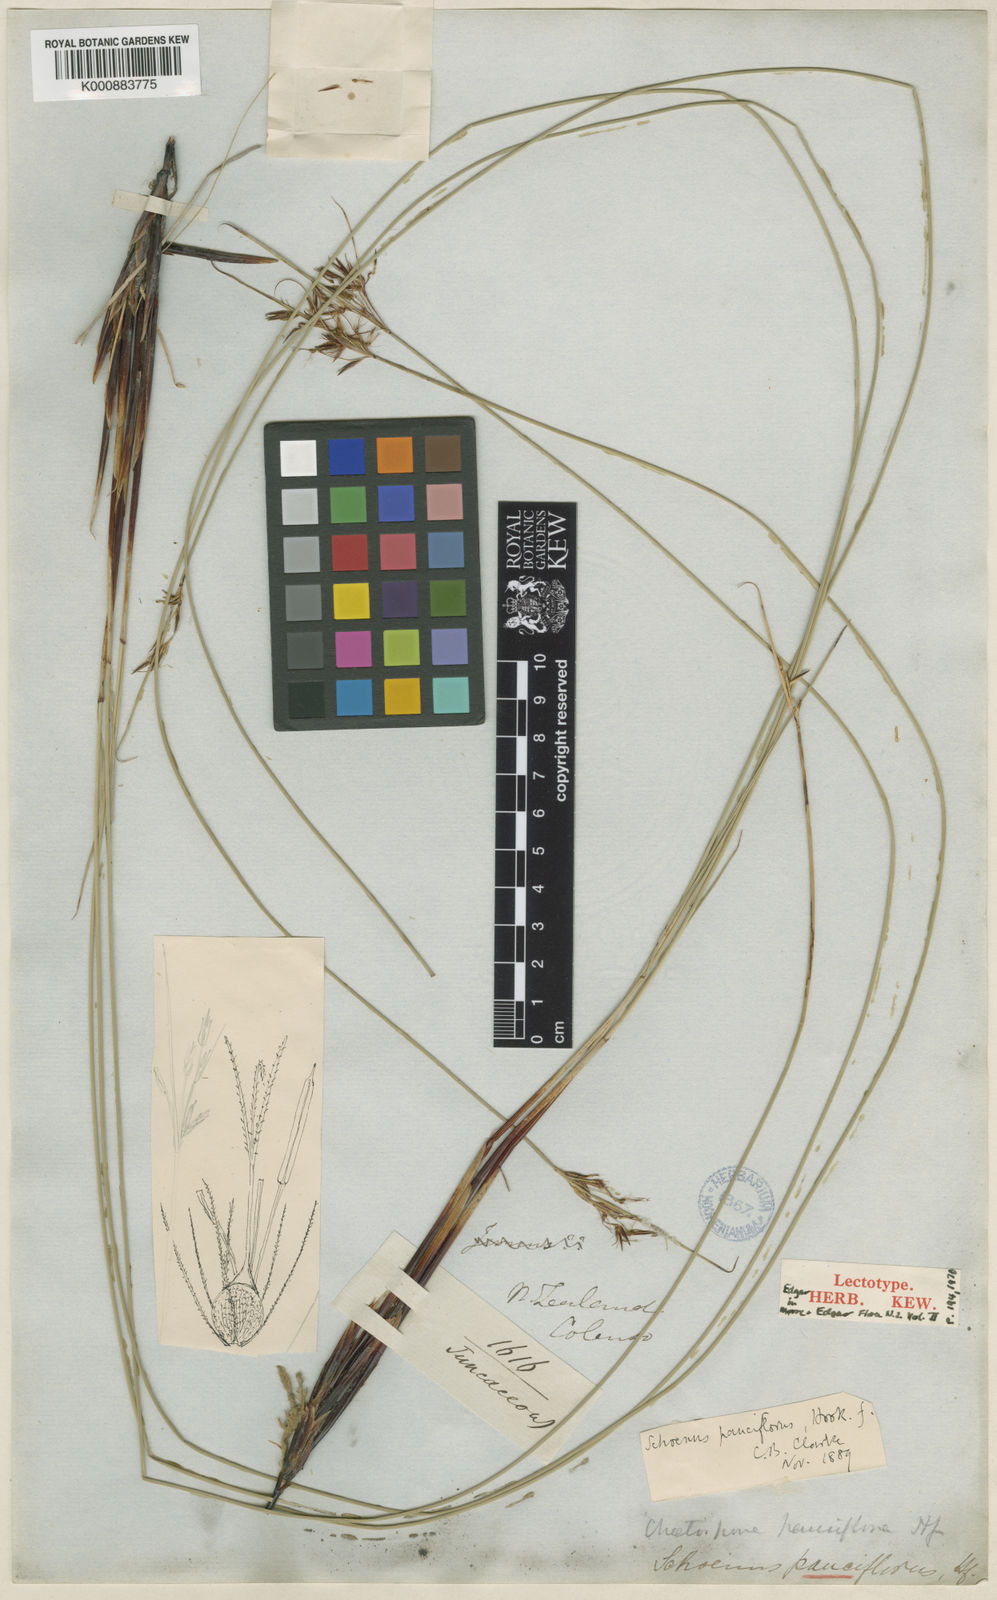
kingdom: Plantae
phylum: Tracheophyta
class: Liliopsida
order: Poales
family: Cyperaceae
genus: Schoenus
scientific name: Schoenus pauciflorus
